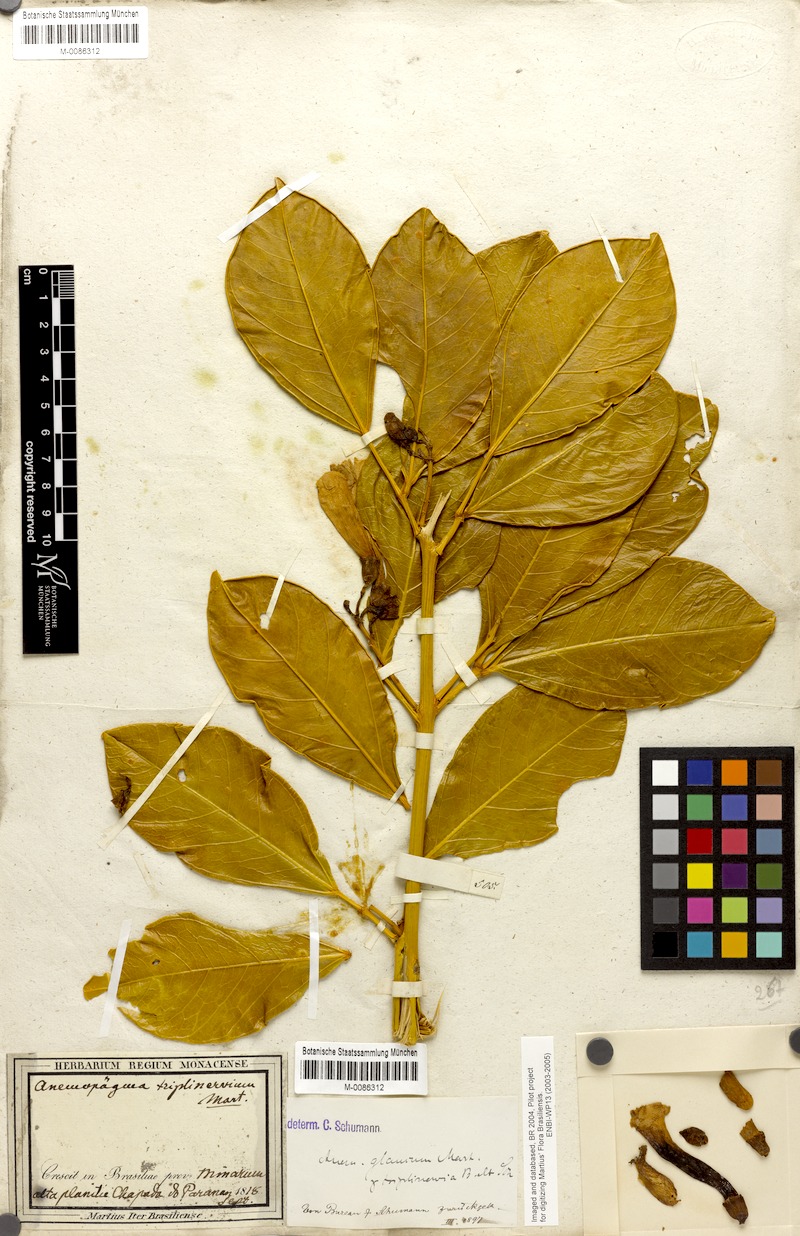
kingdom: Plantae
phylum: Tracheophyta
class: Magnoliopsida
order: Lamiales
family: Bignoniaceae
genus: Anemopaegma
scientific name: Anemopaegma glaucum
